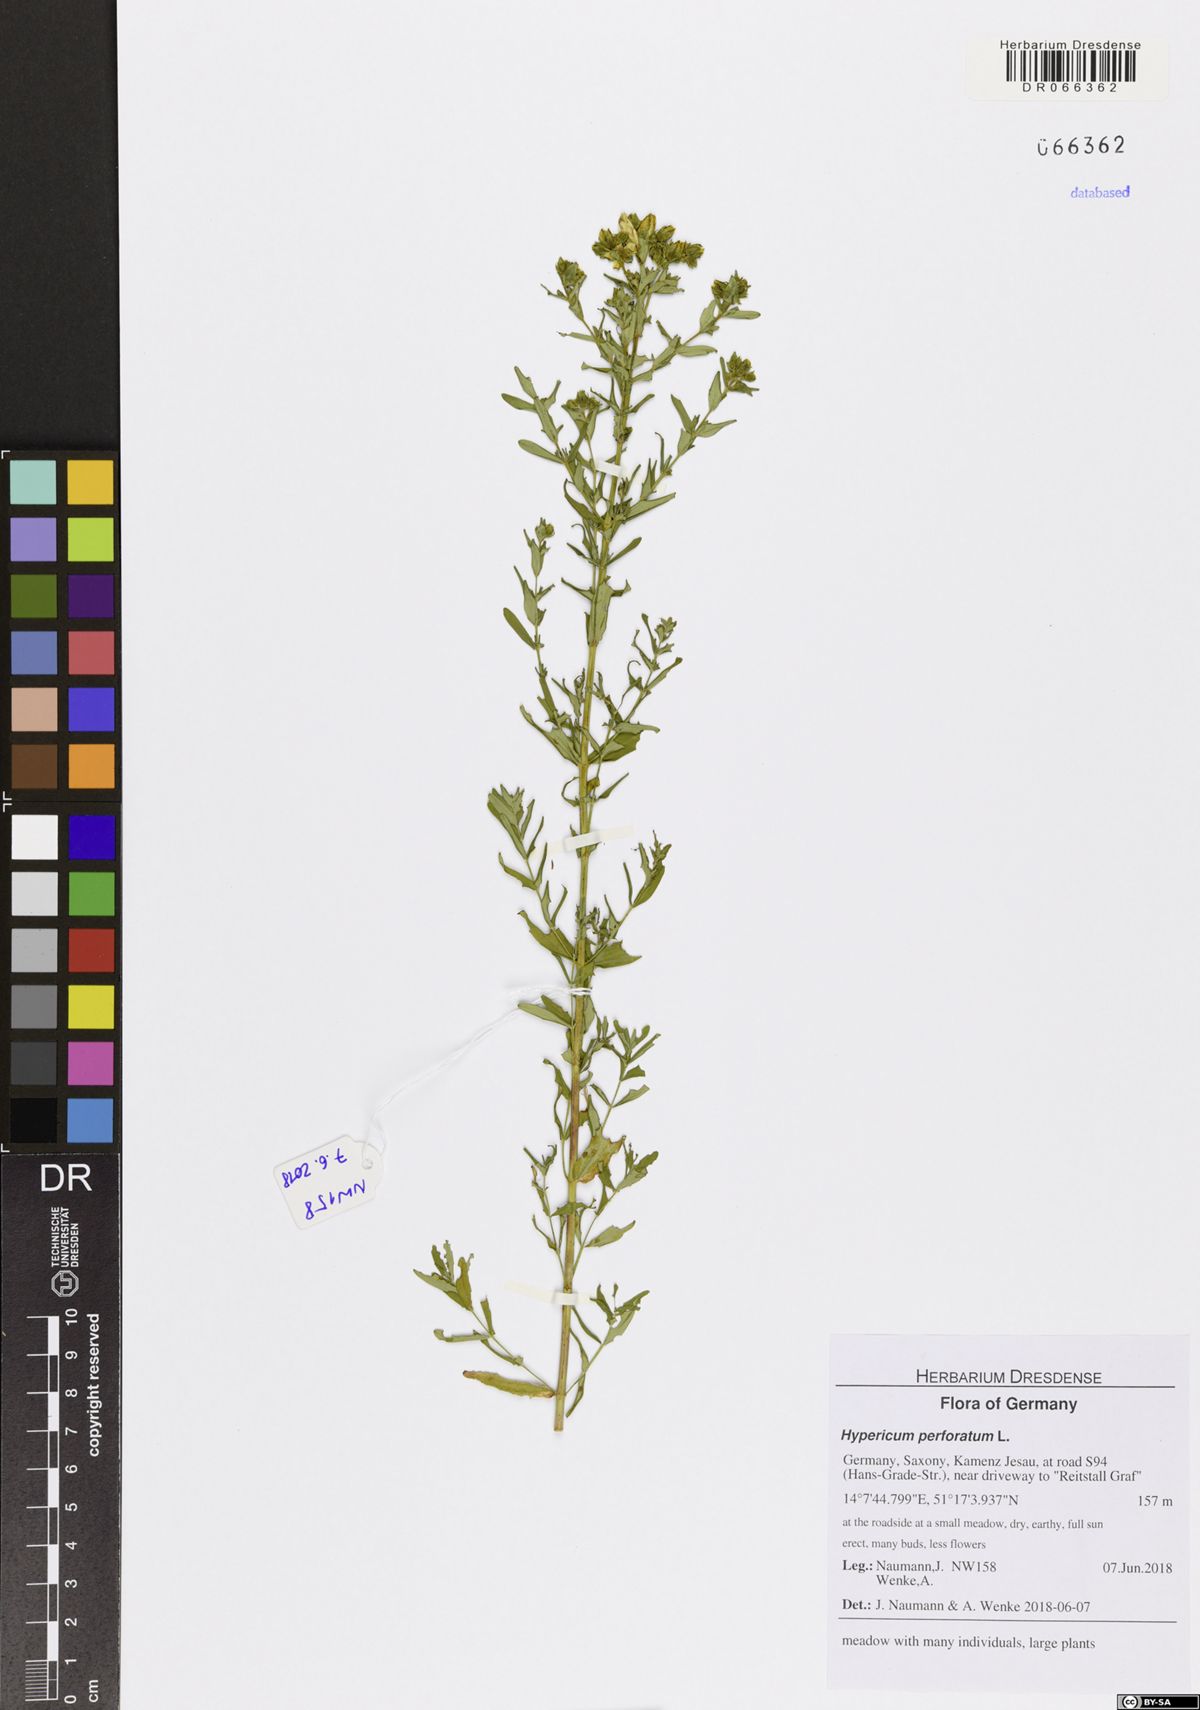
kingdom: Plantae
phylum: Tracheophyta
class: Magnoliopsida
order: Malpighiales
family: Hypericaceae
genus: Hypericum
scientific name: Hypericum perforatum
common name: Common st. johnswort
